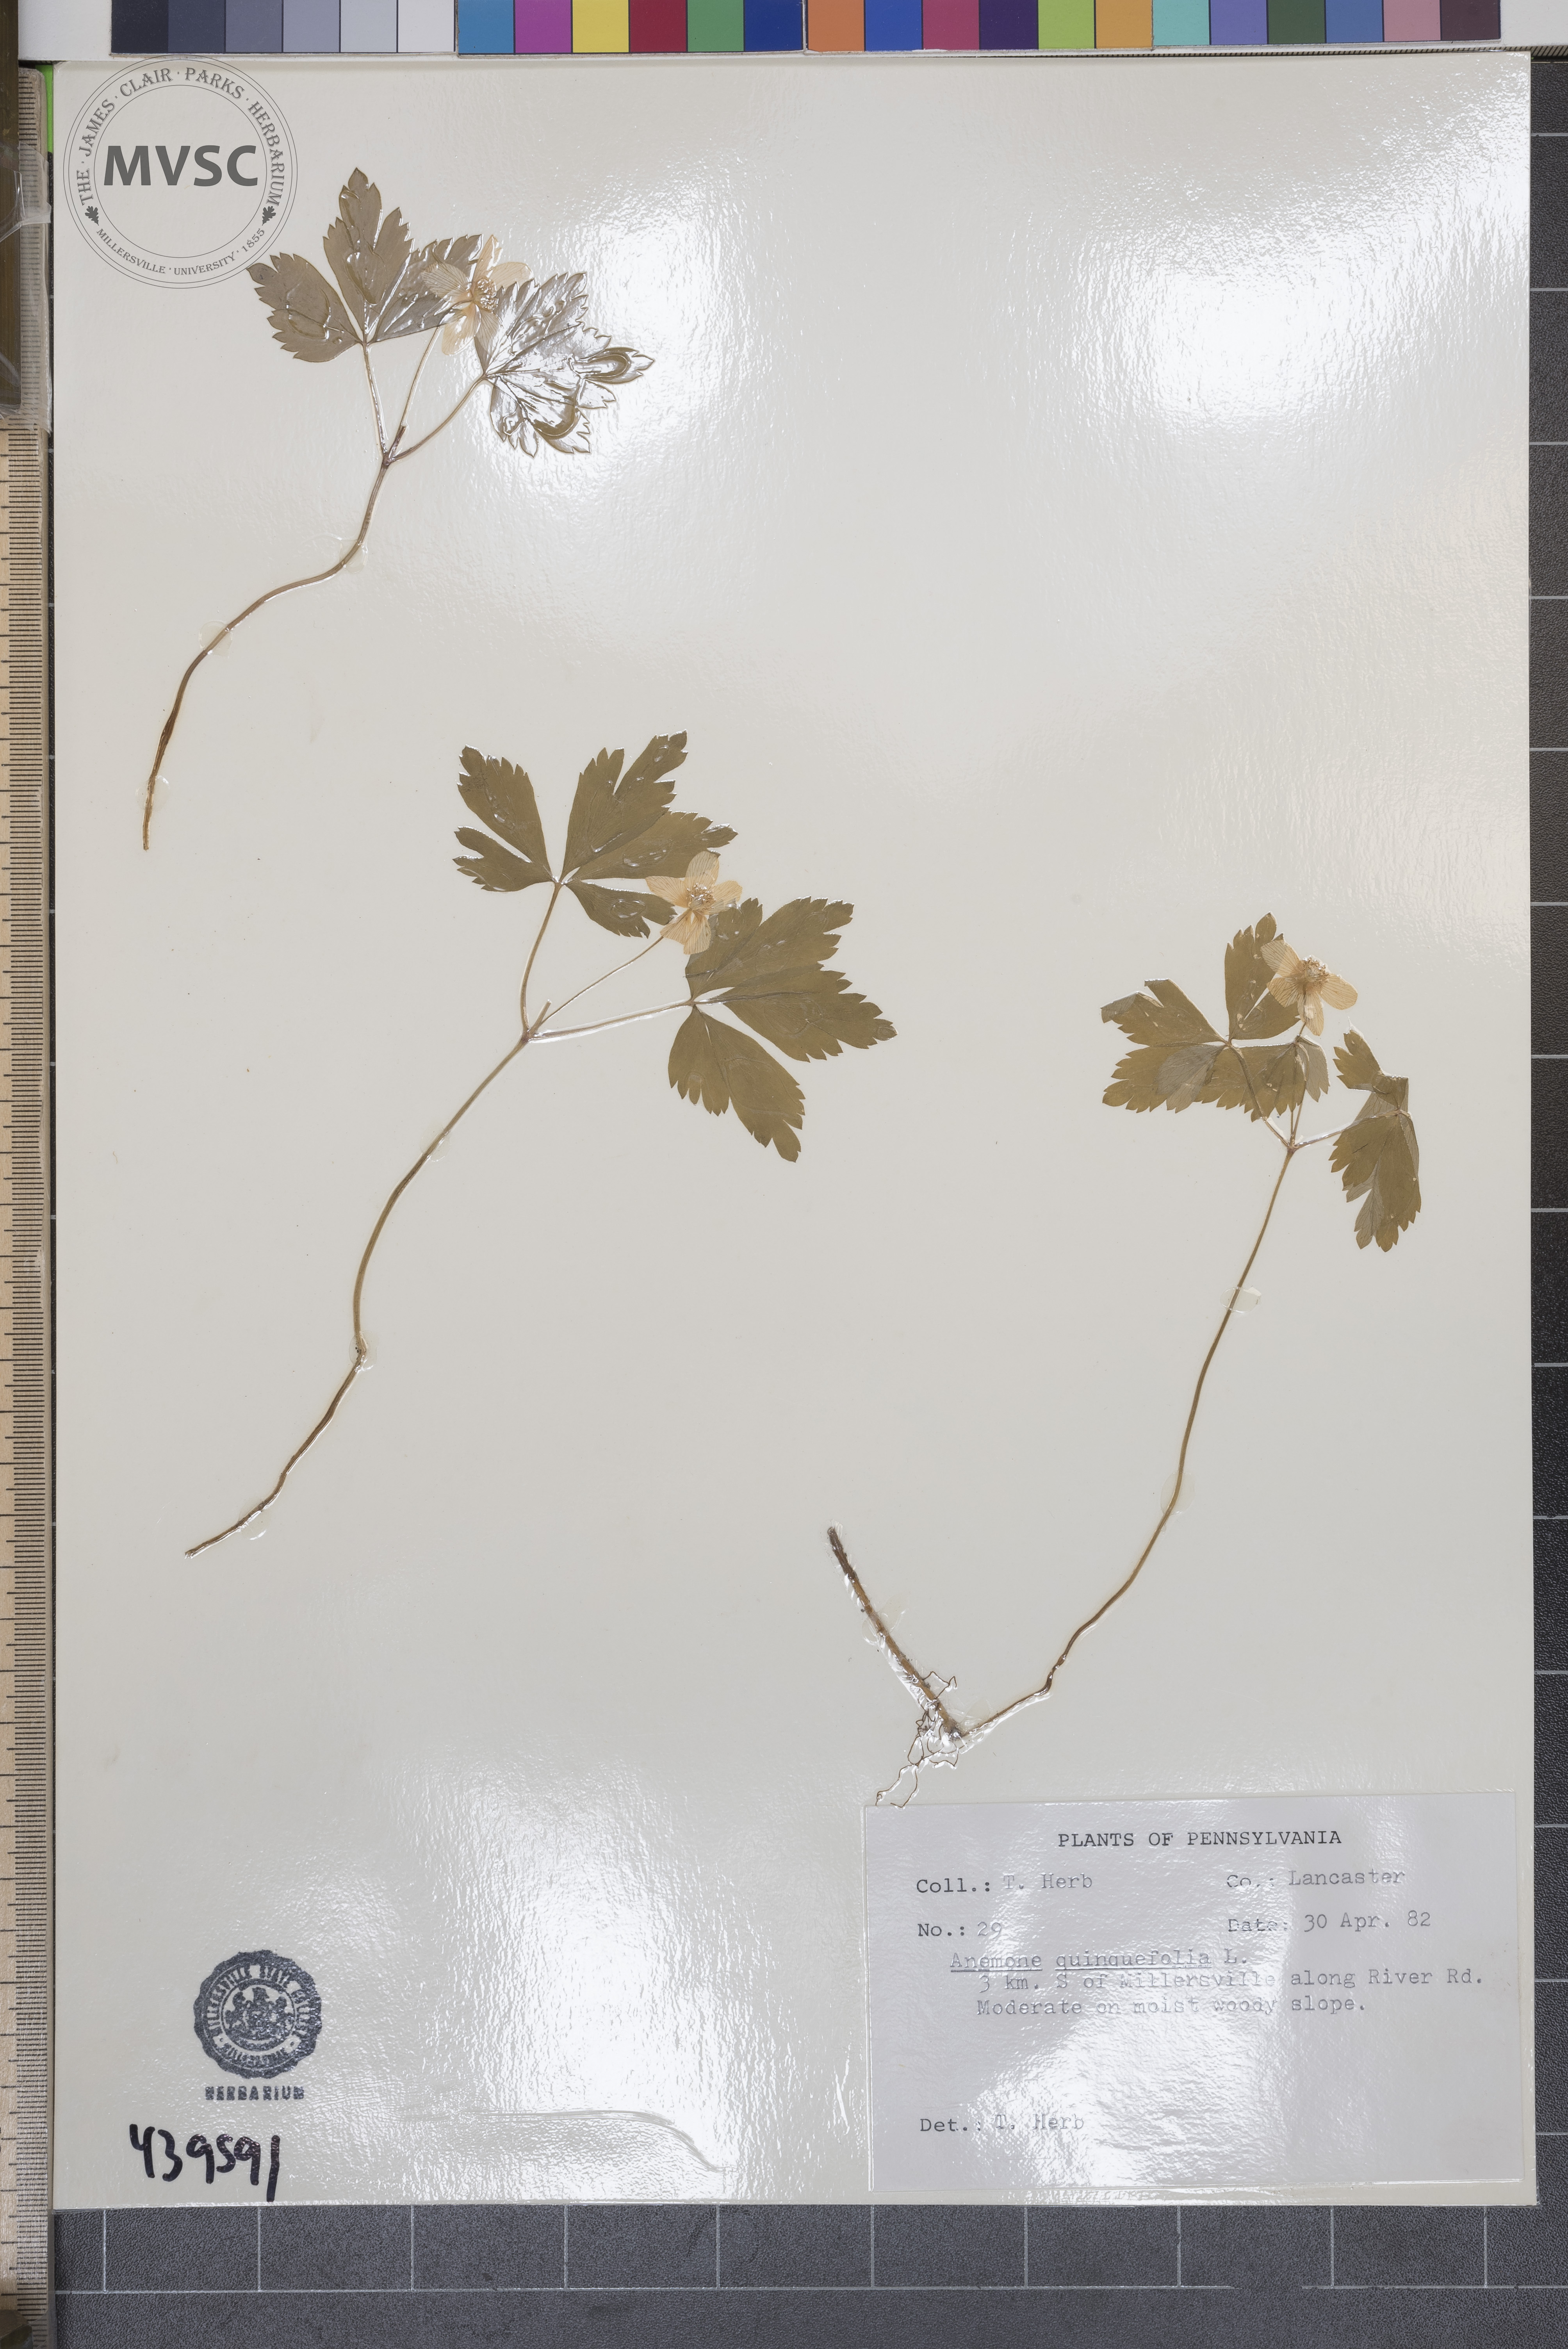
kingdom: Plantae
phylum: Tracheophyta
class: Magnoliopsida
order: Ranunculales
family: Ranunculaceae
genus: Anemone
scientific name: Anemone quinquefolia
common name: Wood anemone
